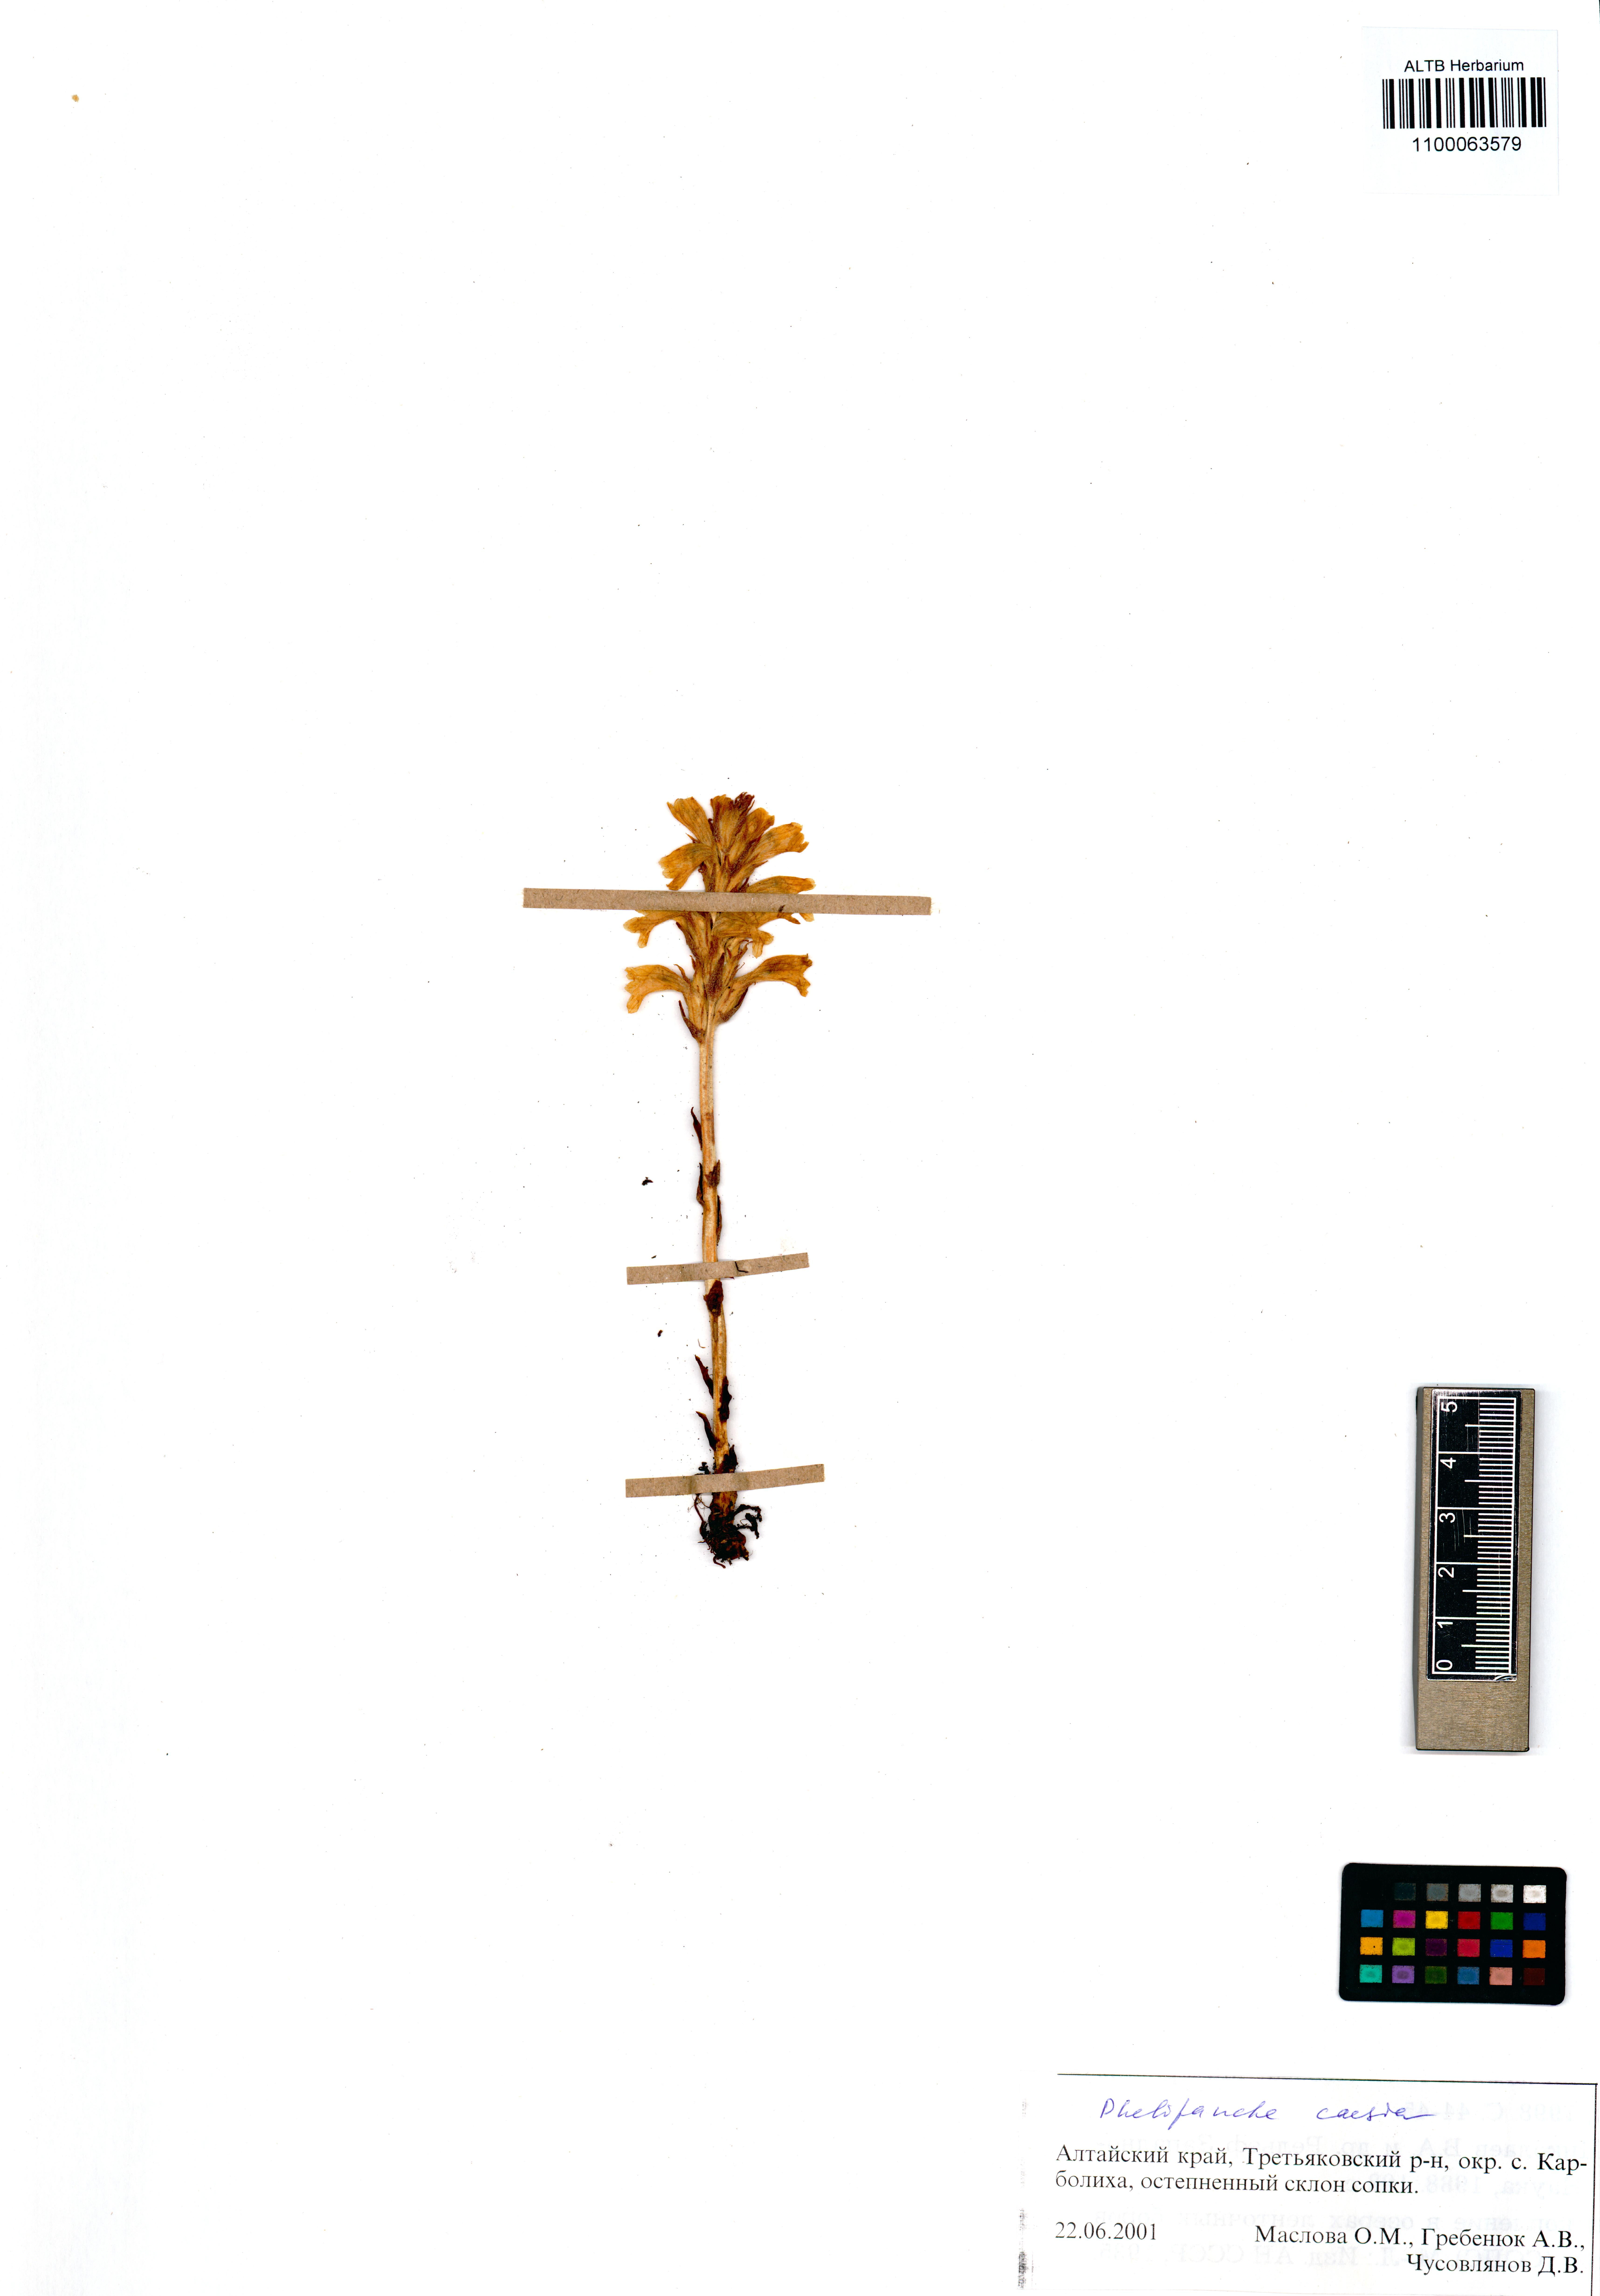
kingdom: Plantae
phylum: Tracheophyta
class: Magnoliopsida
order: Lamiales
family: Orobanchaceae
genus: Phelipanche
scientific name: Phelipanche caesia
